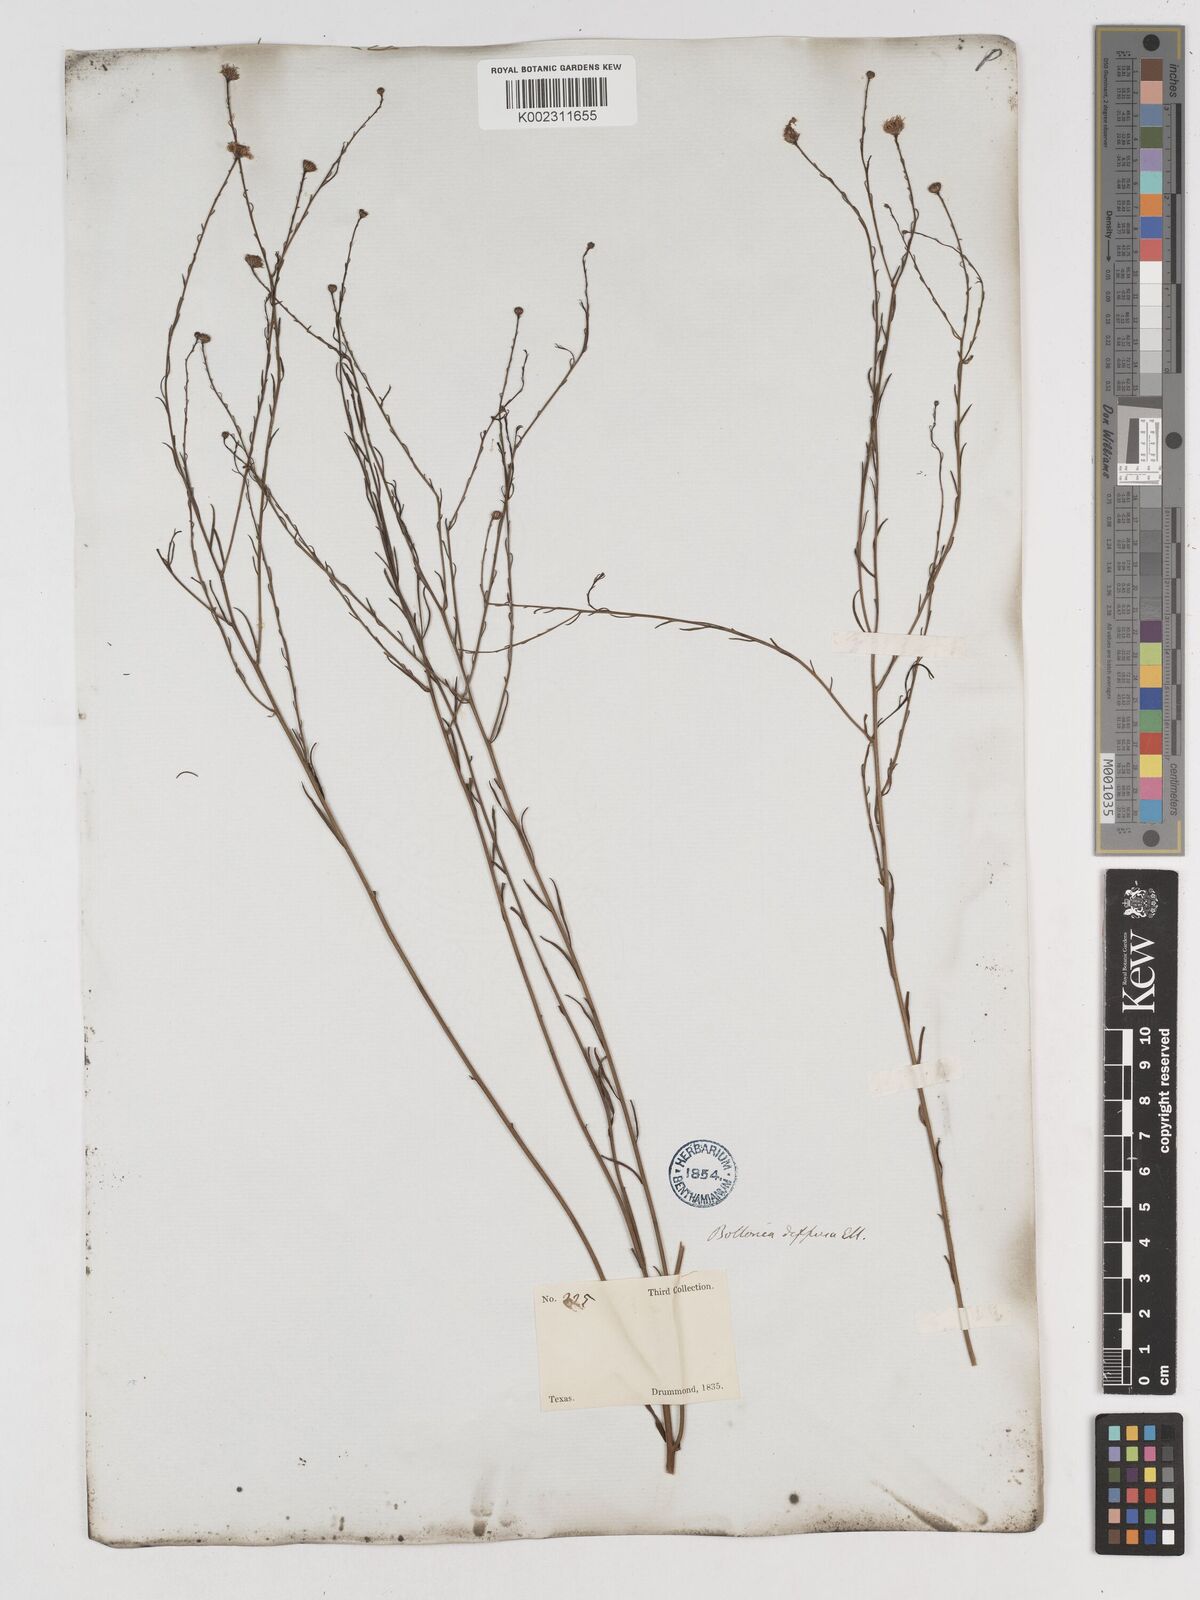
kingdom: Plantae
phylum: Tracheophyta
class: Magnoliopsida
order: Asterales
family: Asteraceae
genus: Boltonia
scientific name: Boltonia diffusa
